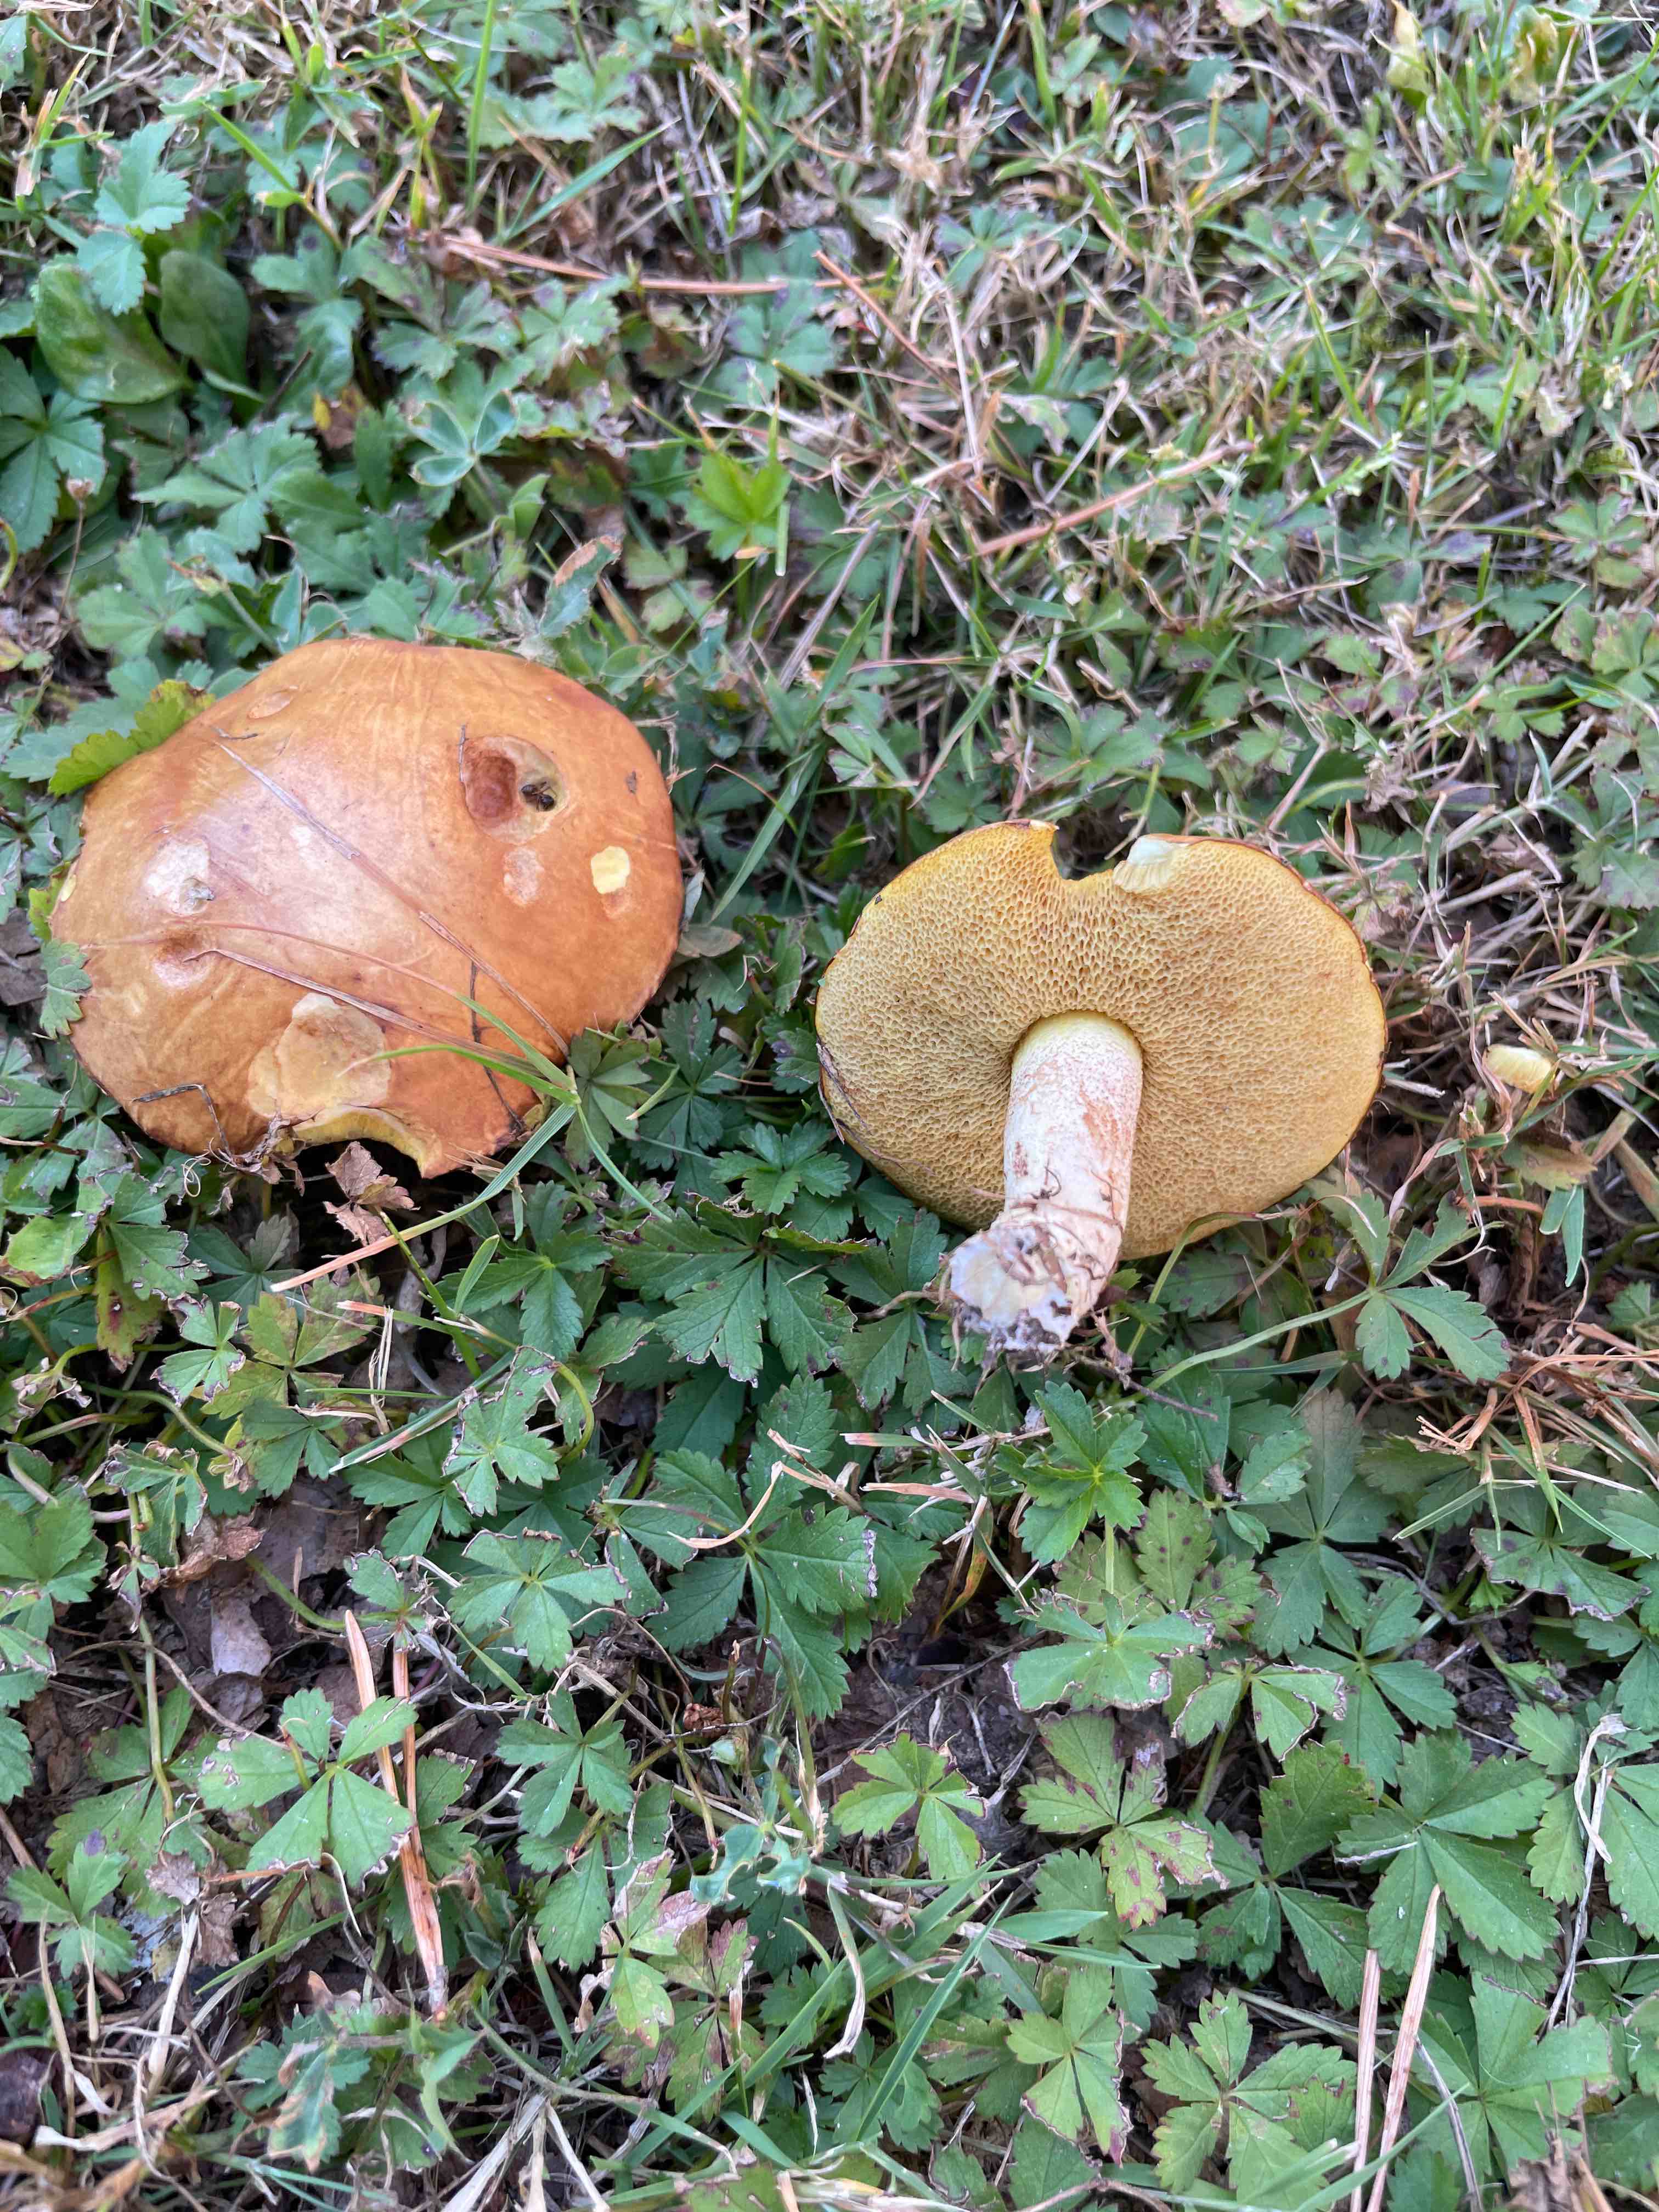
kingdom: Fungi
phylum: Basidiomycota
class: Agaricomycetes
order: Boletales
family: Suillaceae
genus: Suillus
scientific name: Suillus granulatus
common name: kornet slimrørhat
